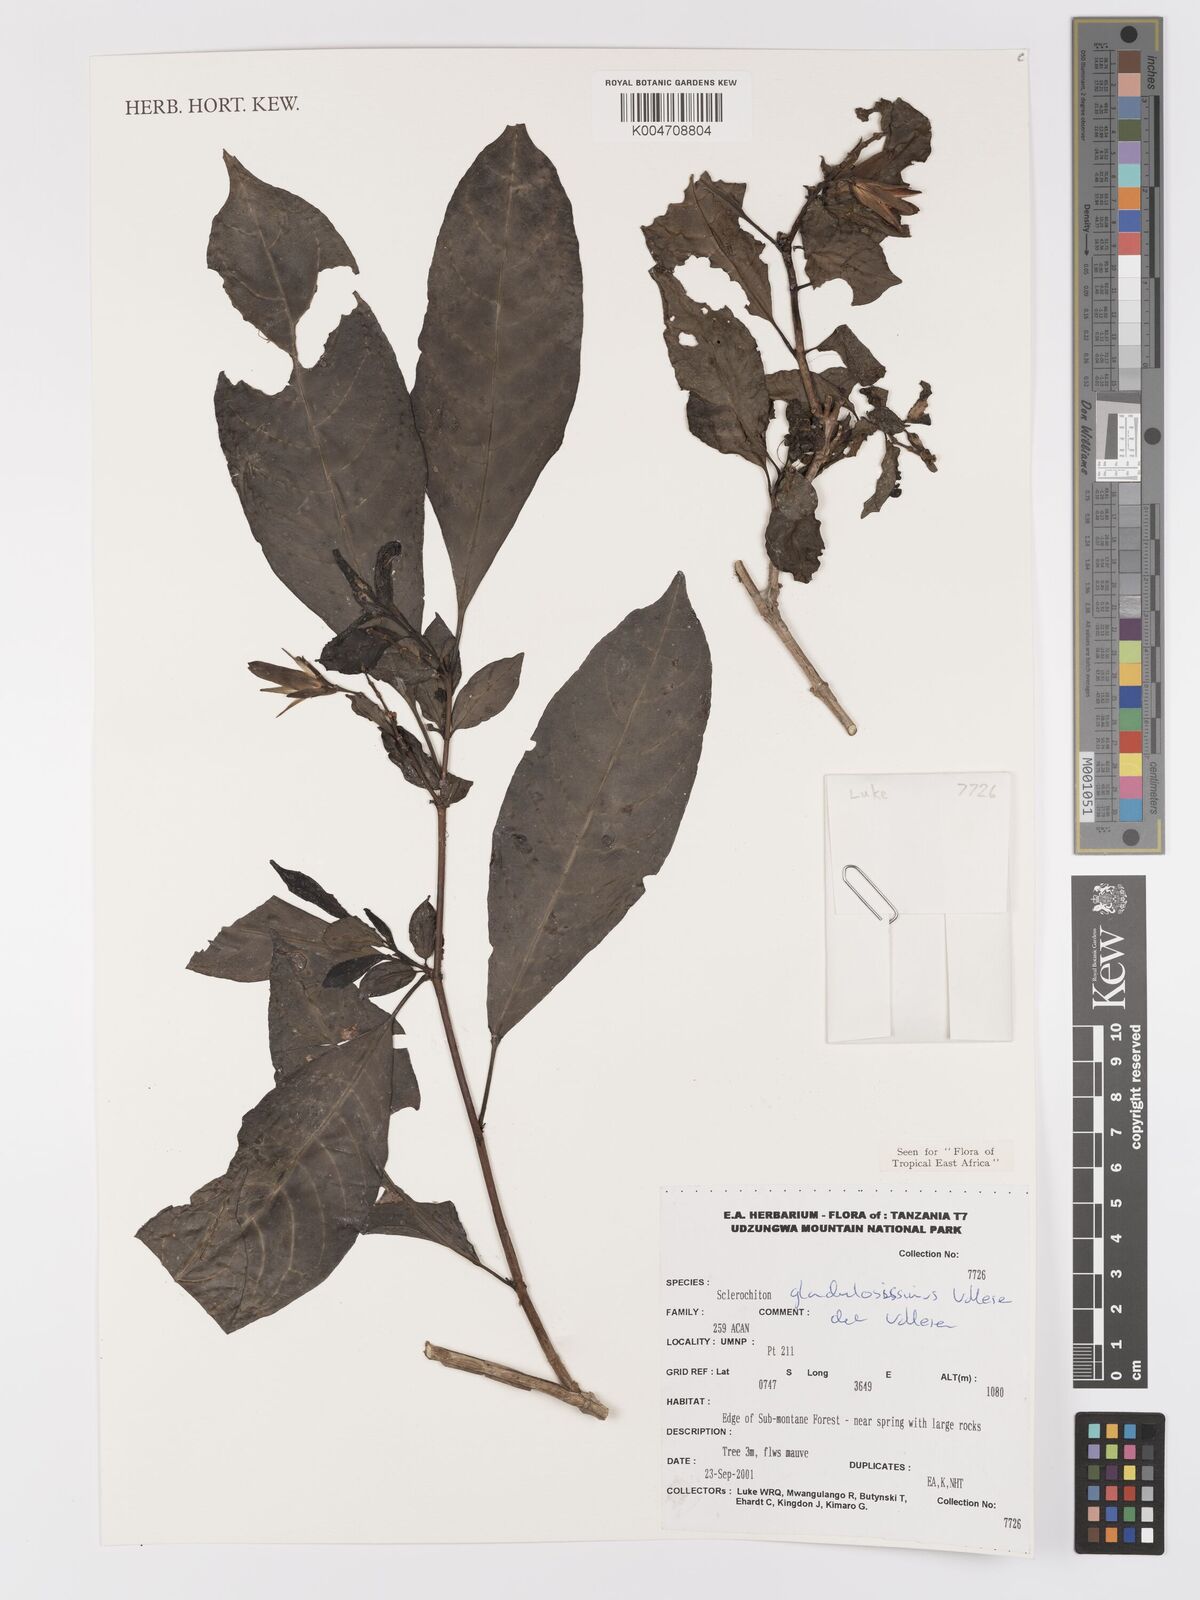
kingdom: Plantae
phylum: Tracheophyta
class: Magnoliopsida
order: Lamiales
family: Acanthaceae
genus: Sclerochiton
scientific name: Sclerochiton glandulosissimus
